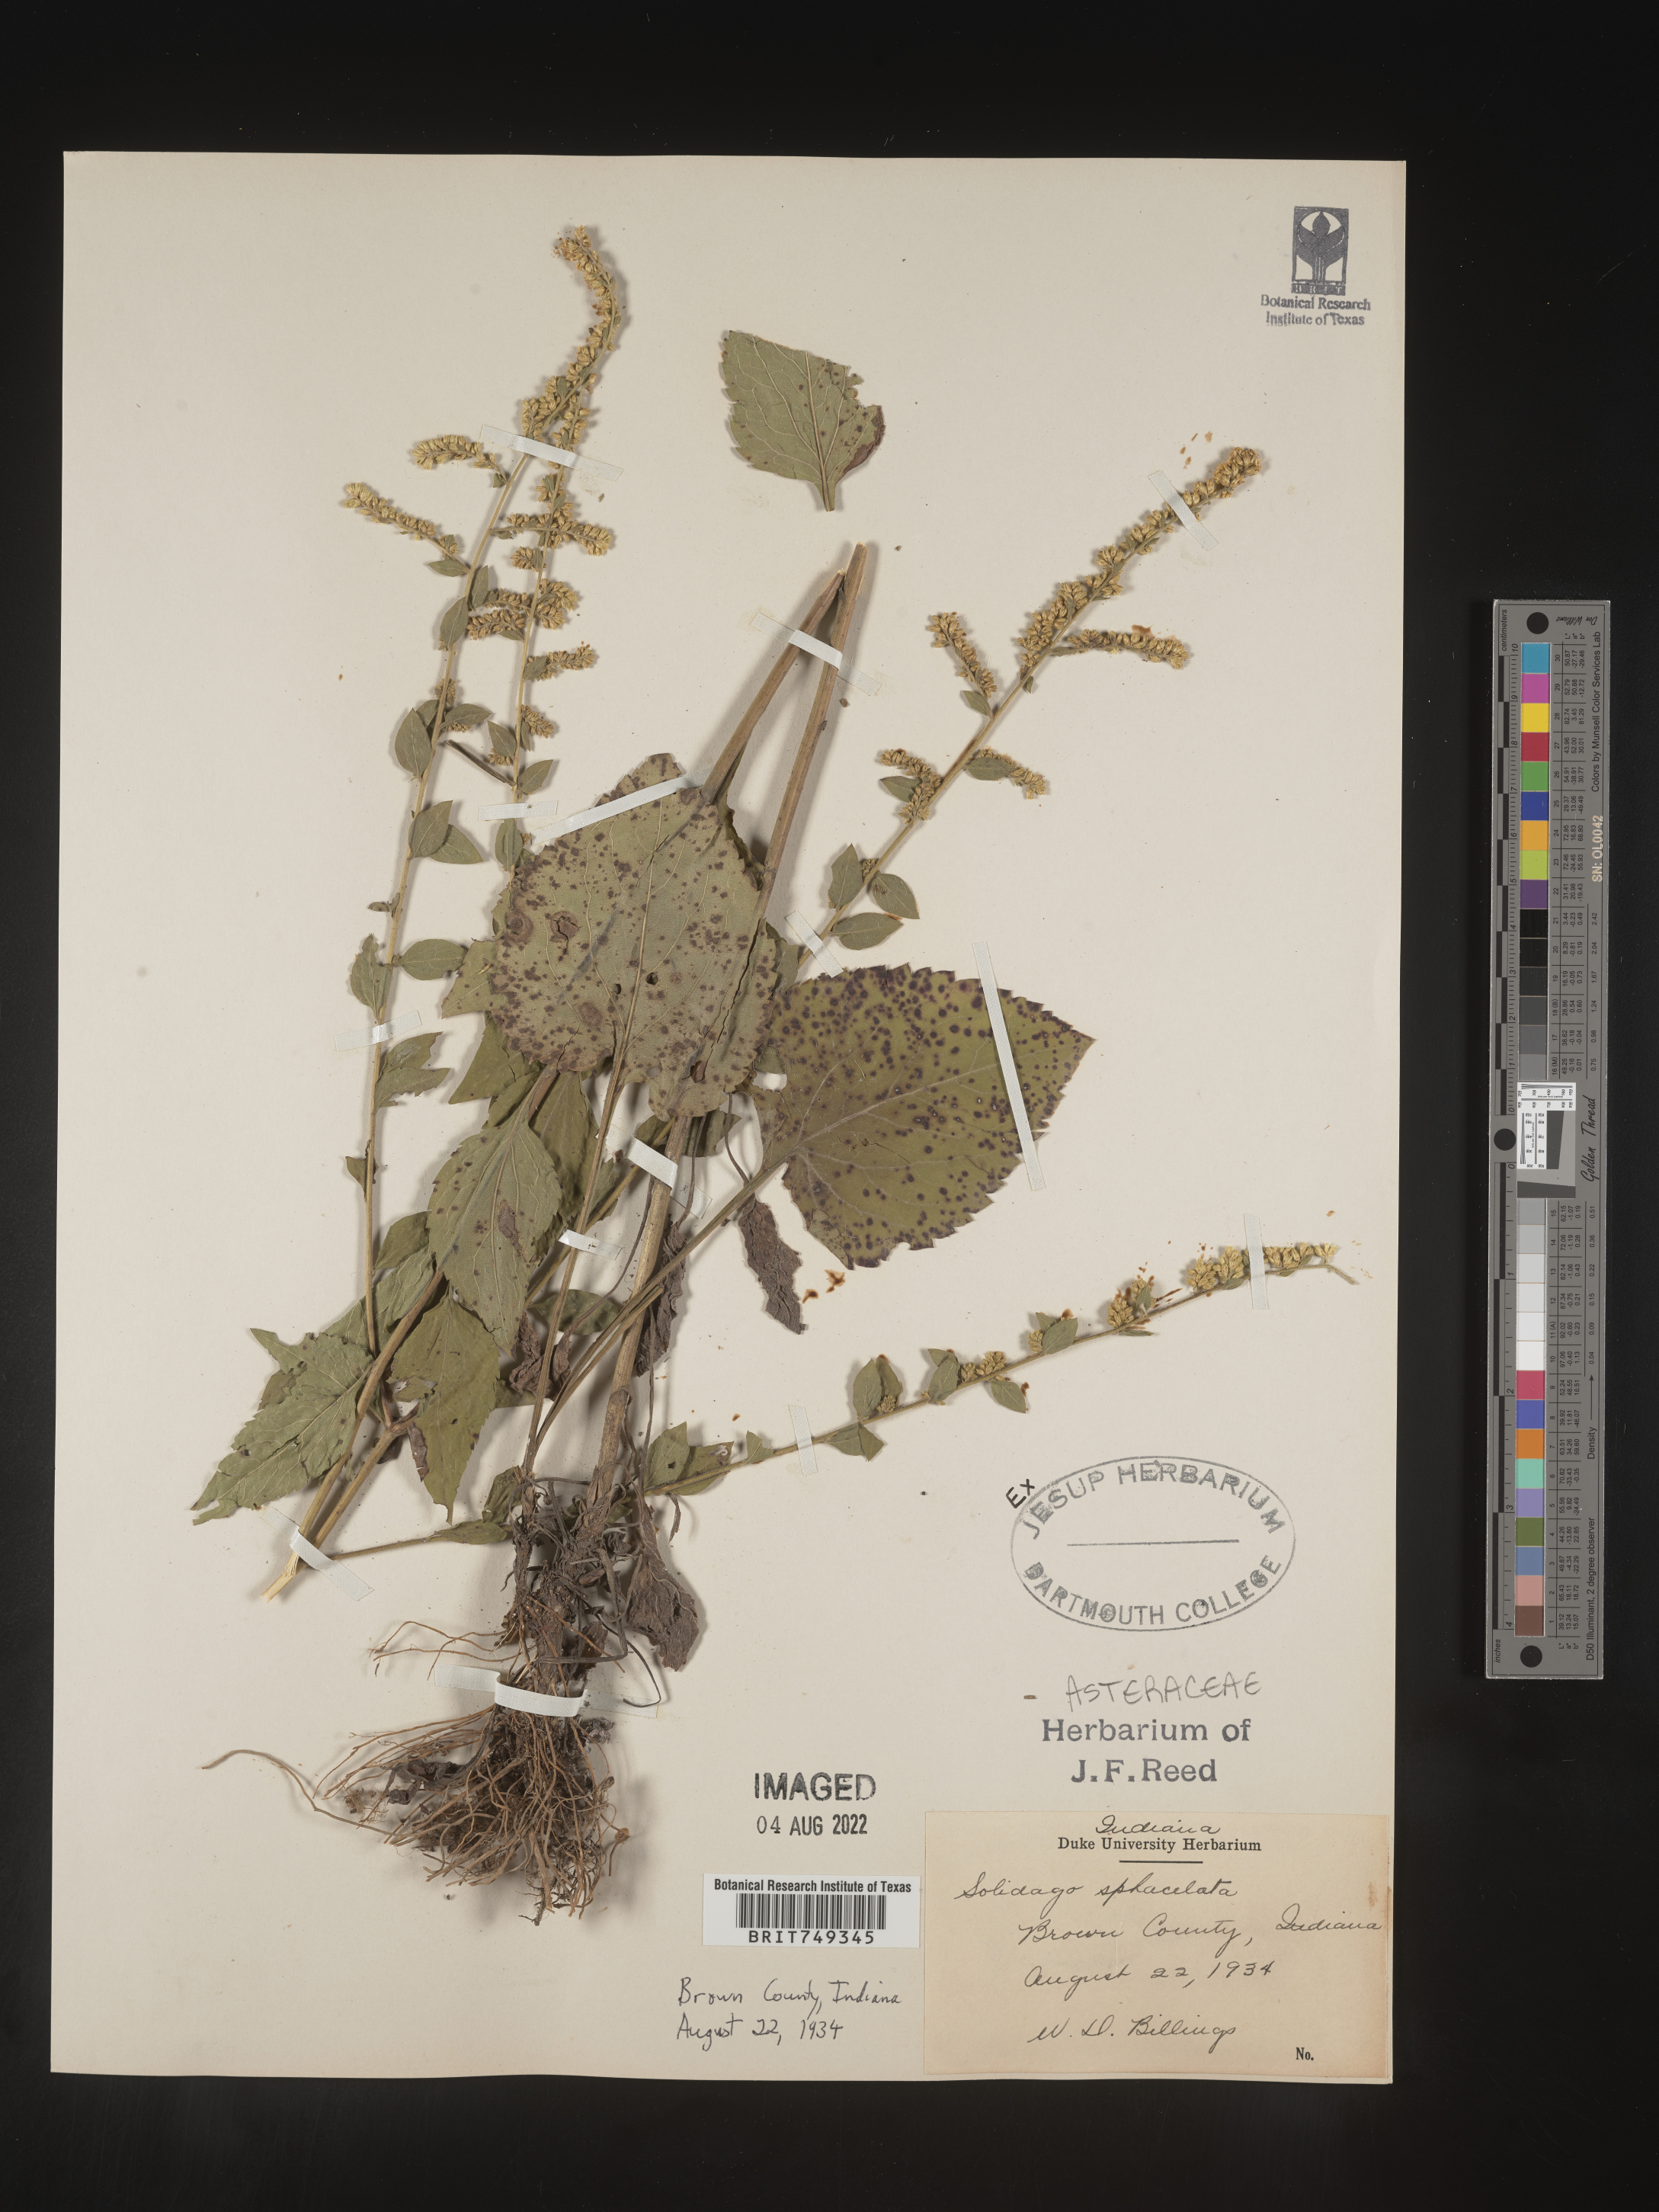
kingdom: Plantae
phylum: Tracheophyta
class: Magnoliopsida
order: Asterales
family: Asteraceae
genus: Solidago
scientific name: Solidago sphacelata
